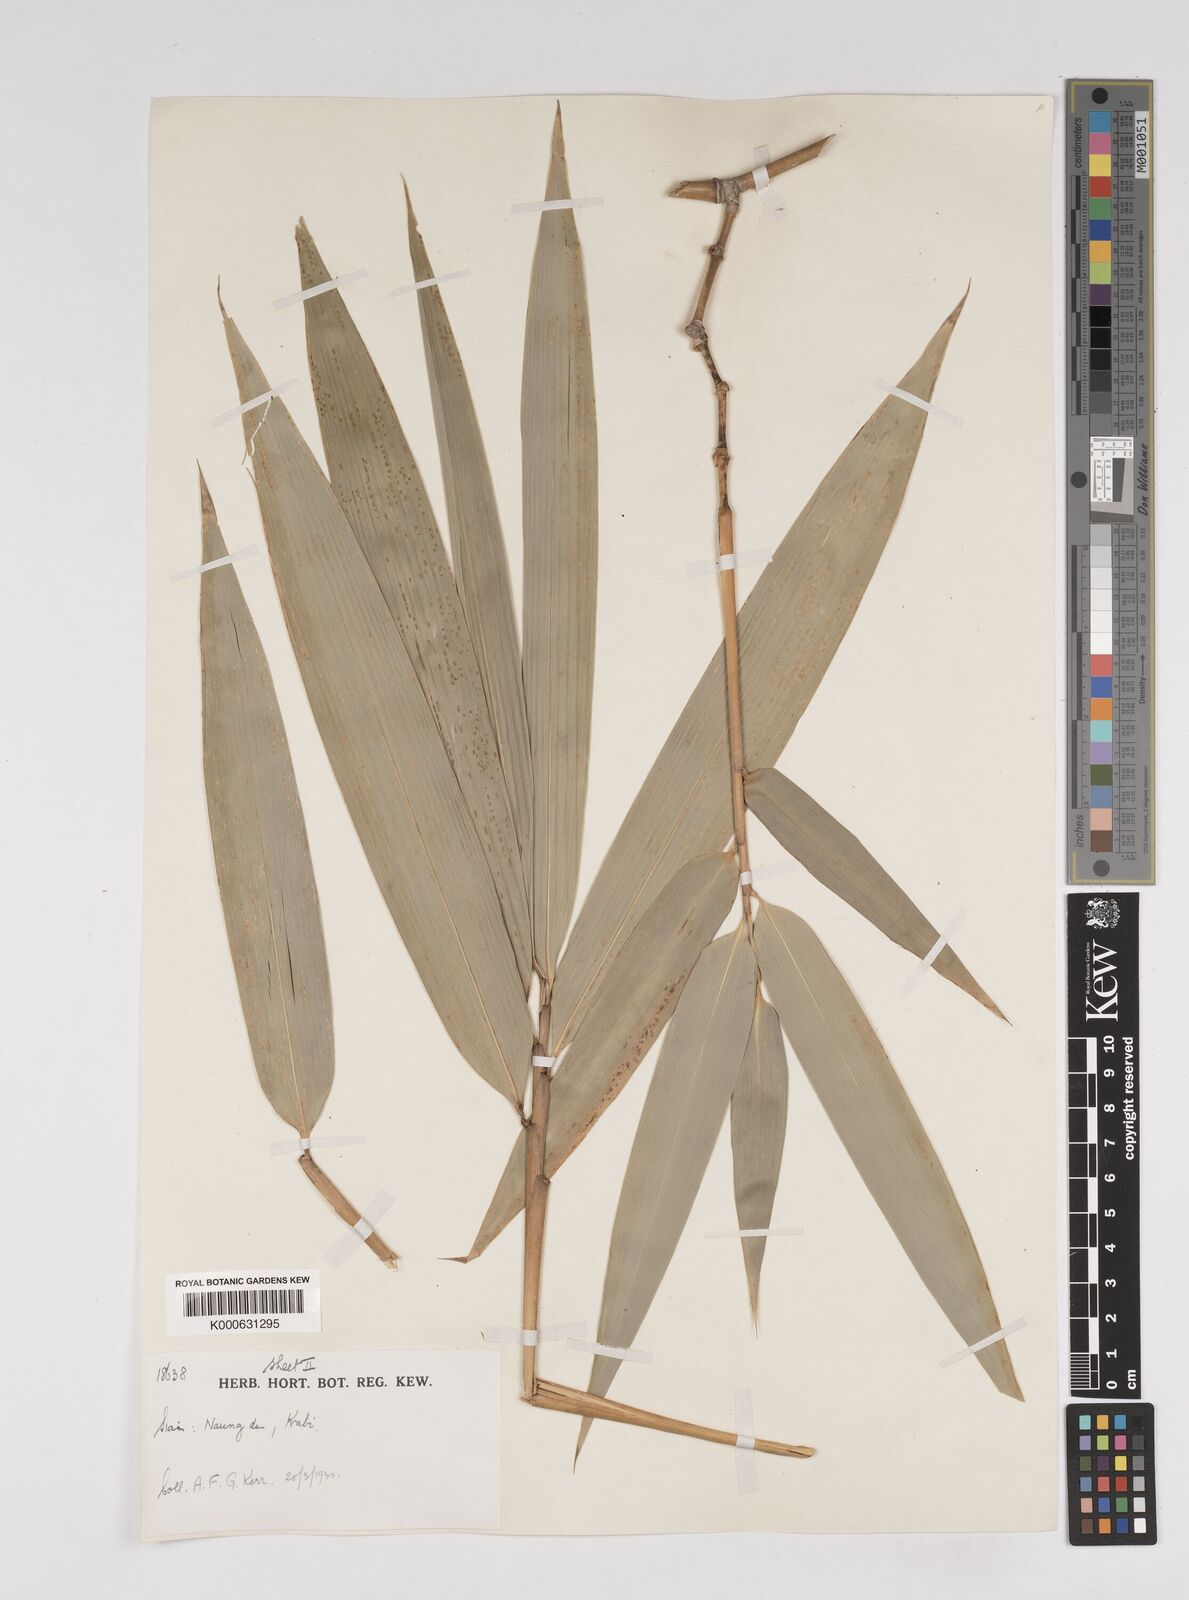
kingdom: Plantae
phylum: Tracheophyta
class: Liliopsida
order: Poales
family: Poaceae
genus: Dendrocalamus
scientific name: Dendrocalamus
